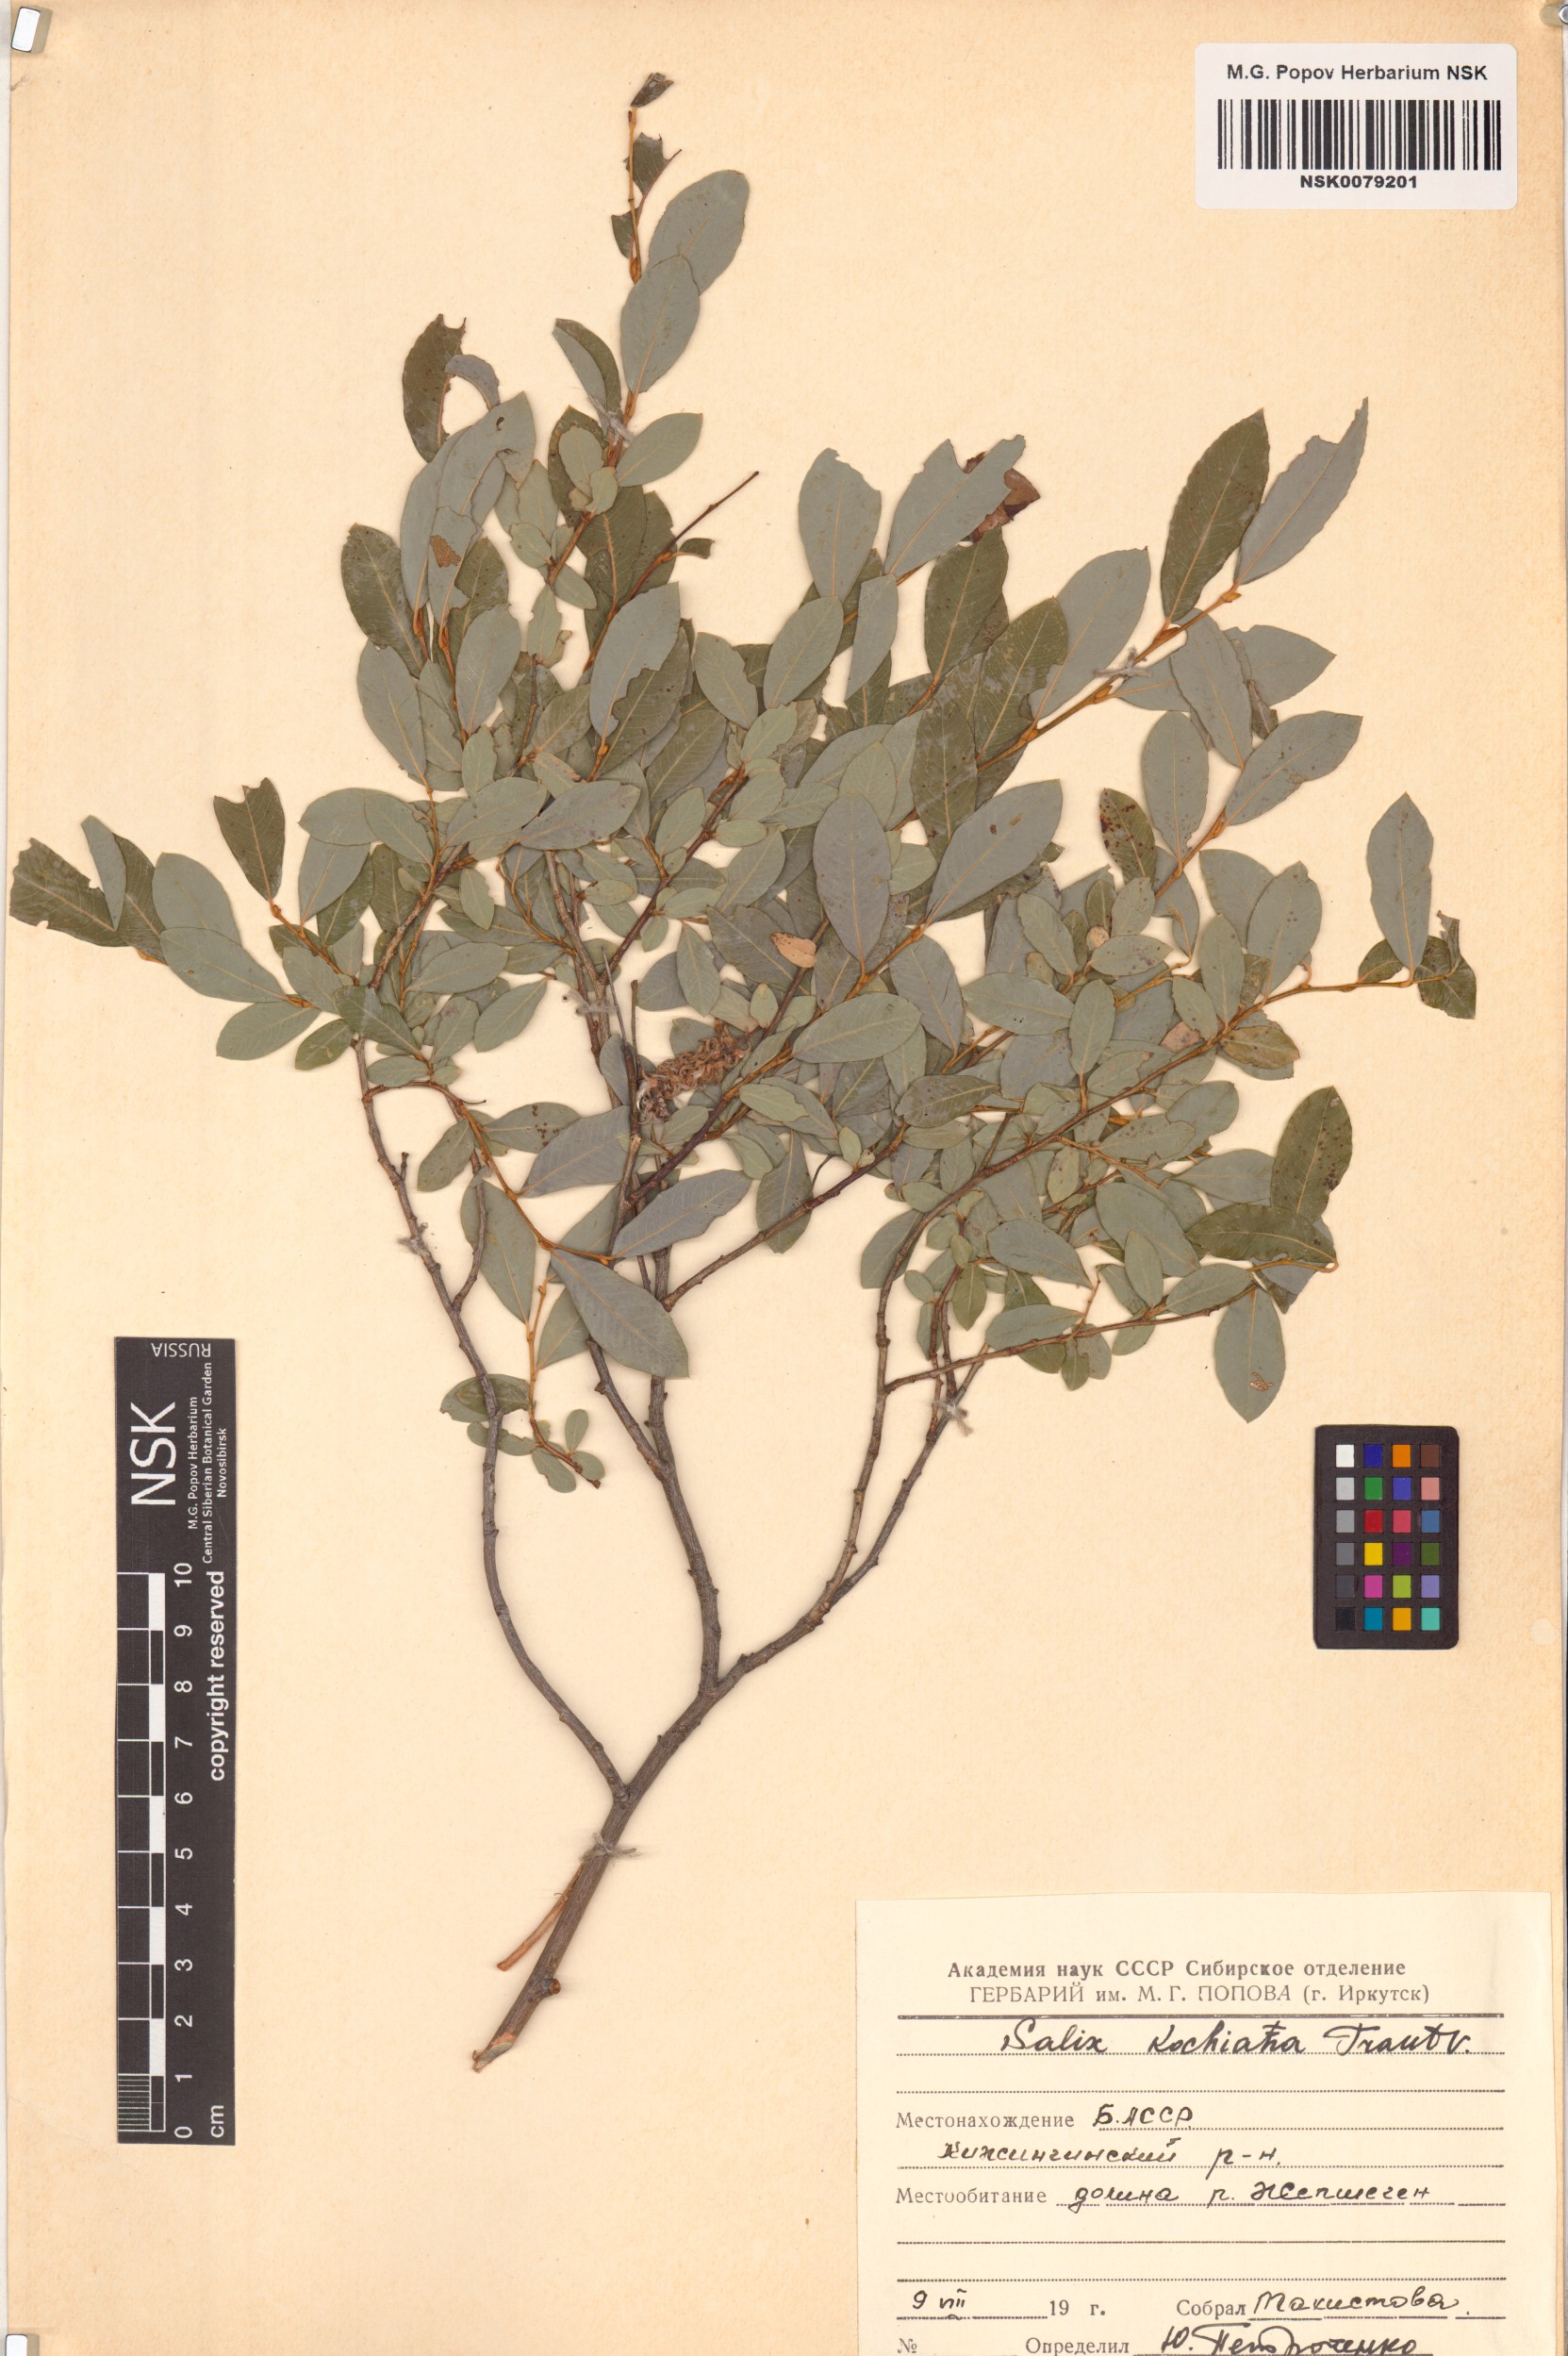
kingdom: Plantae
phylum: Tracheophyta
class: Magnoliopsida
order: Malpighiales
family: Salicaceae
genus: Salix
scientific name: Salix kochiana
